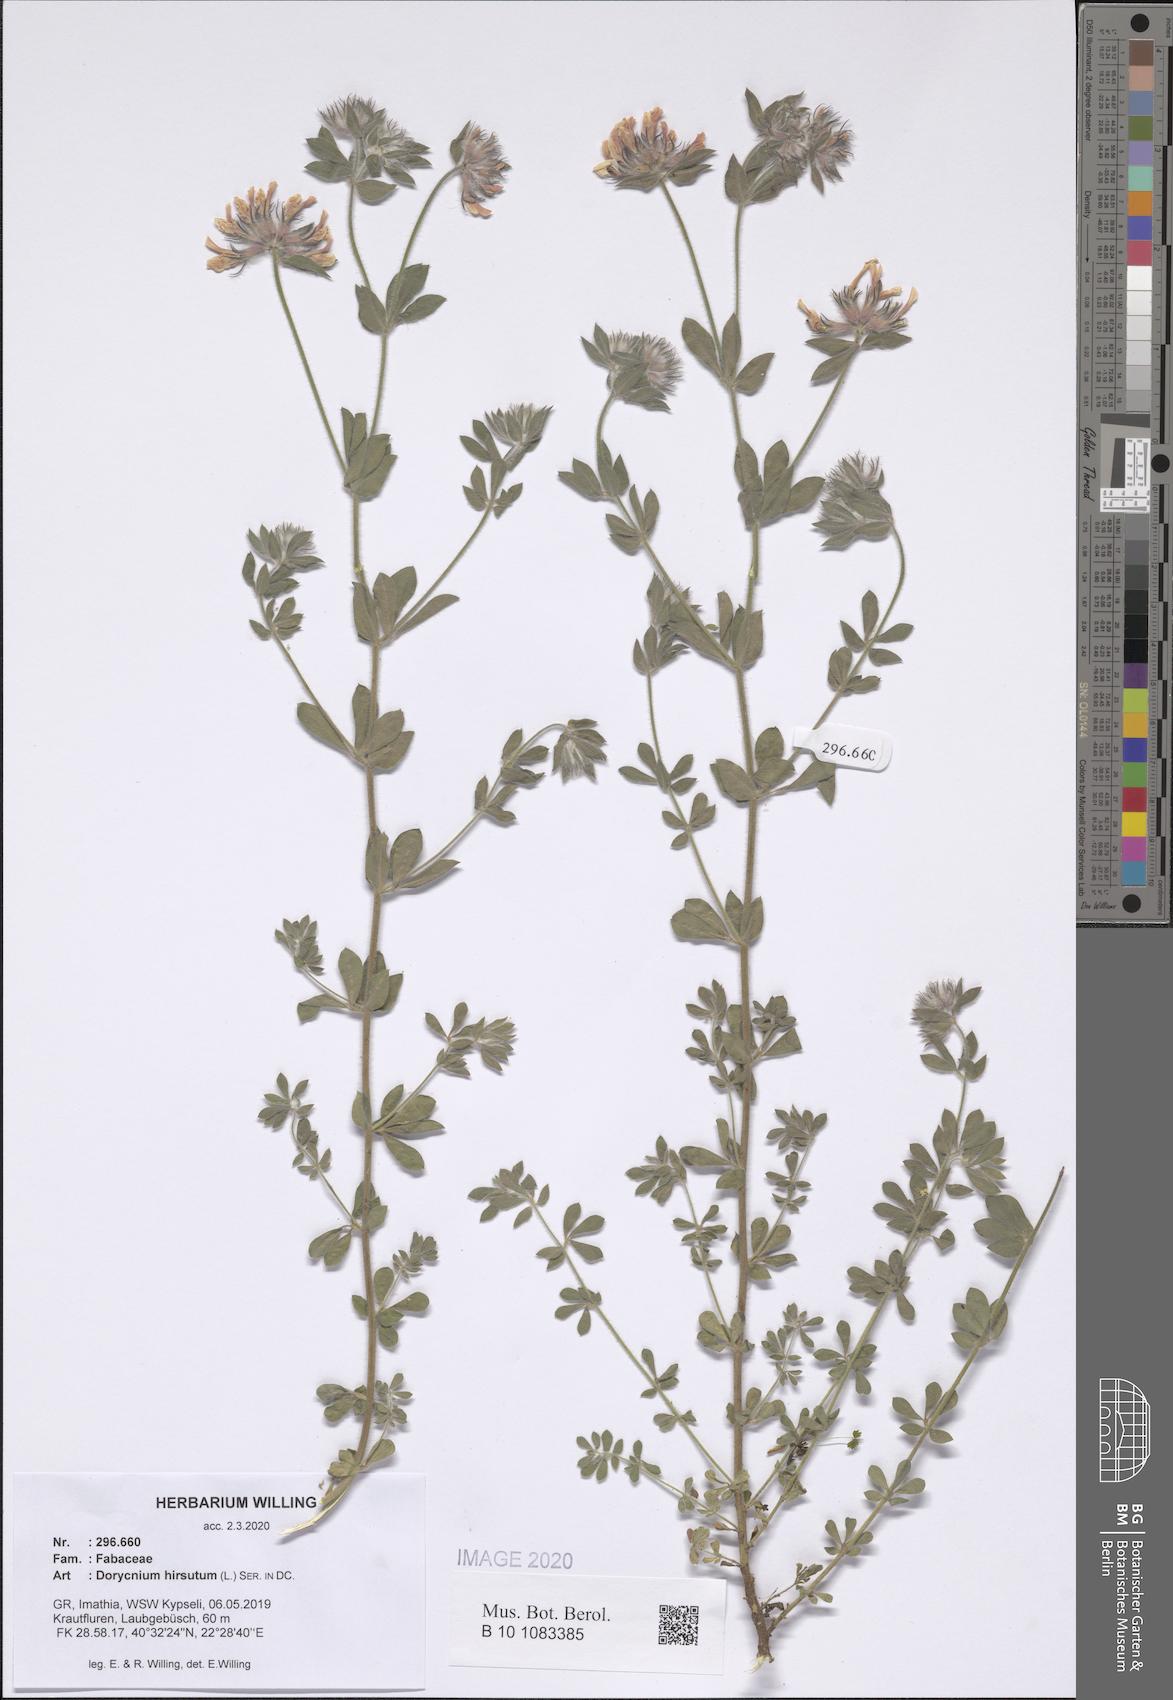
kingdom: Plantae
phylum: Tracheophyta
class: Magnoliopsida
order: Fabales
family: Fabaceae
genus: Lotus
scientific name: Lotus hirsutus
